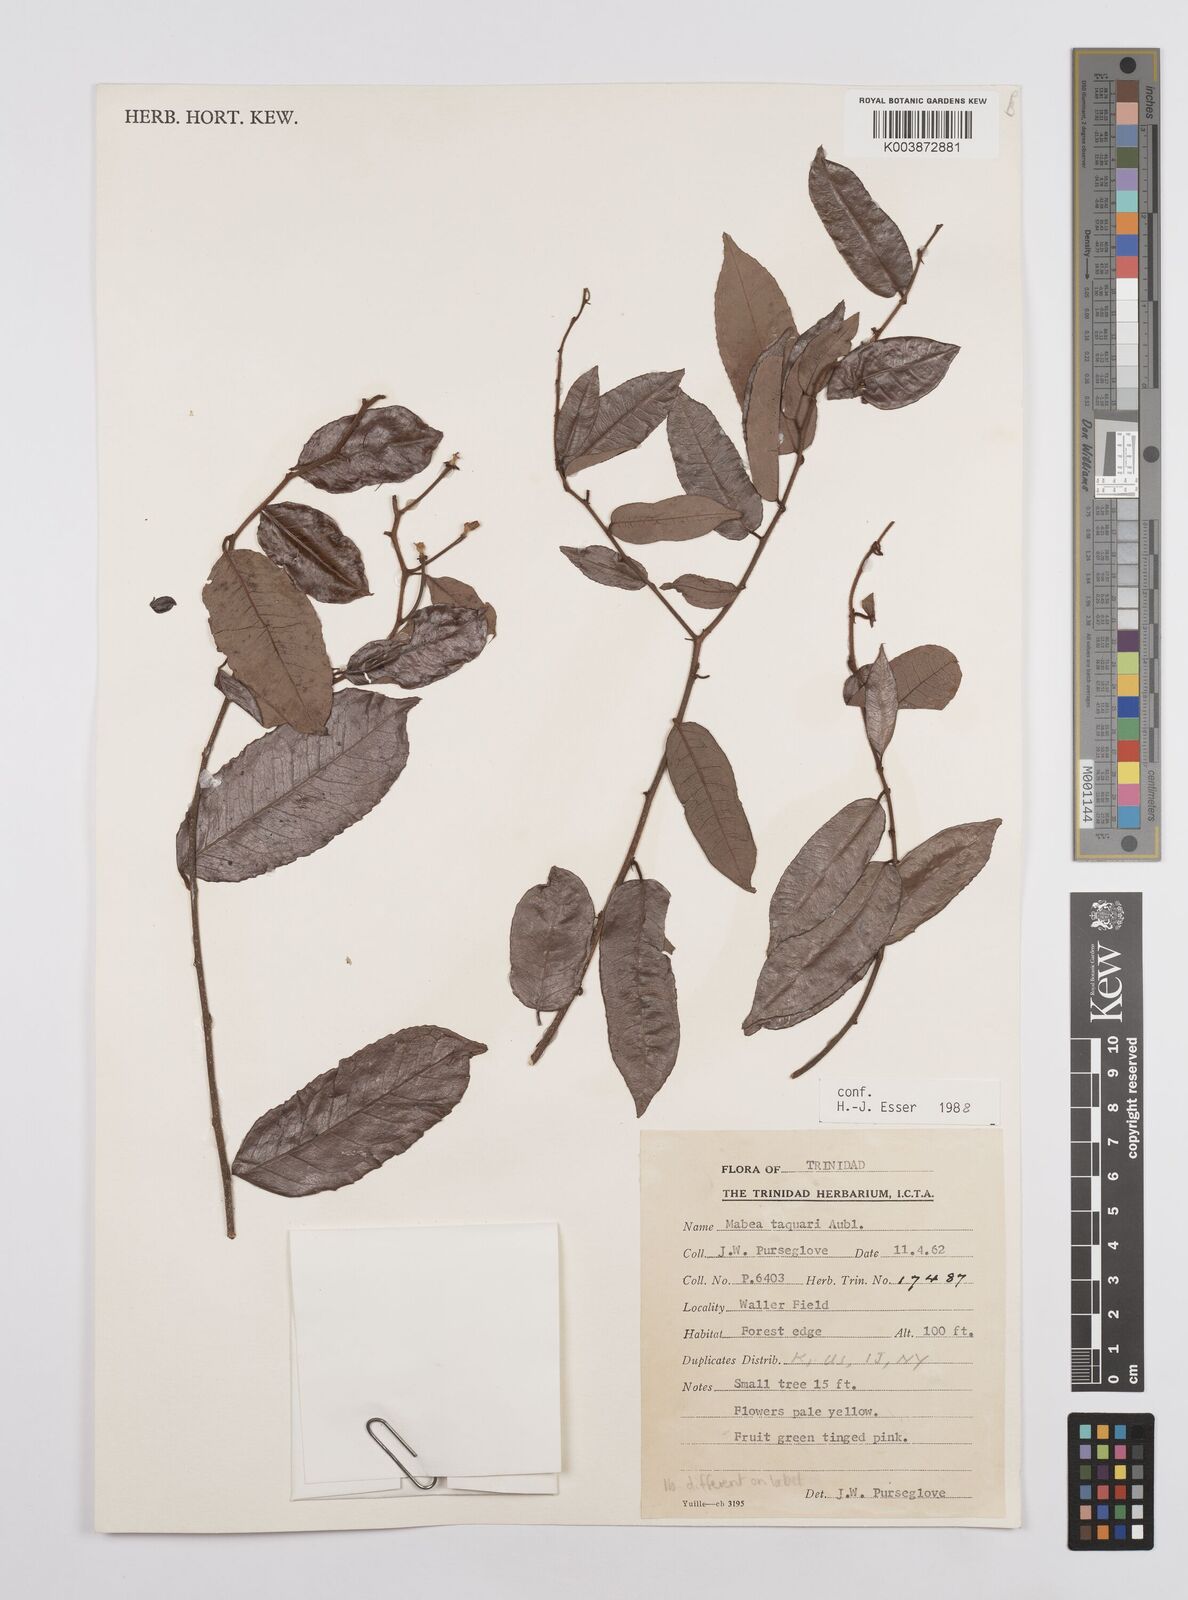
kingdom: Plantae
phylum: Tracheophyta
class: Magnoliopsida
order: Malpighiales
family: Euphorbiaceae
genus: Mabea
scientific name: Mabea taquari
